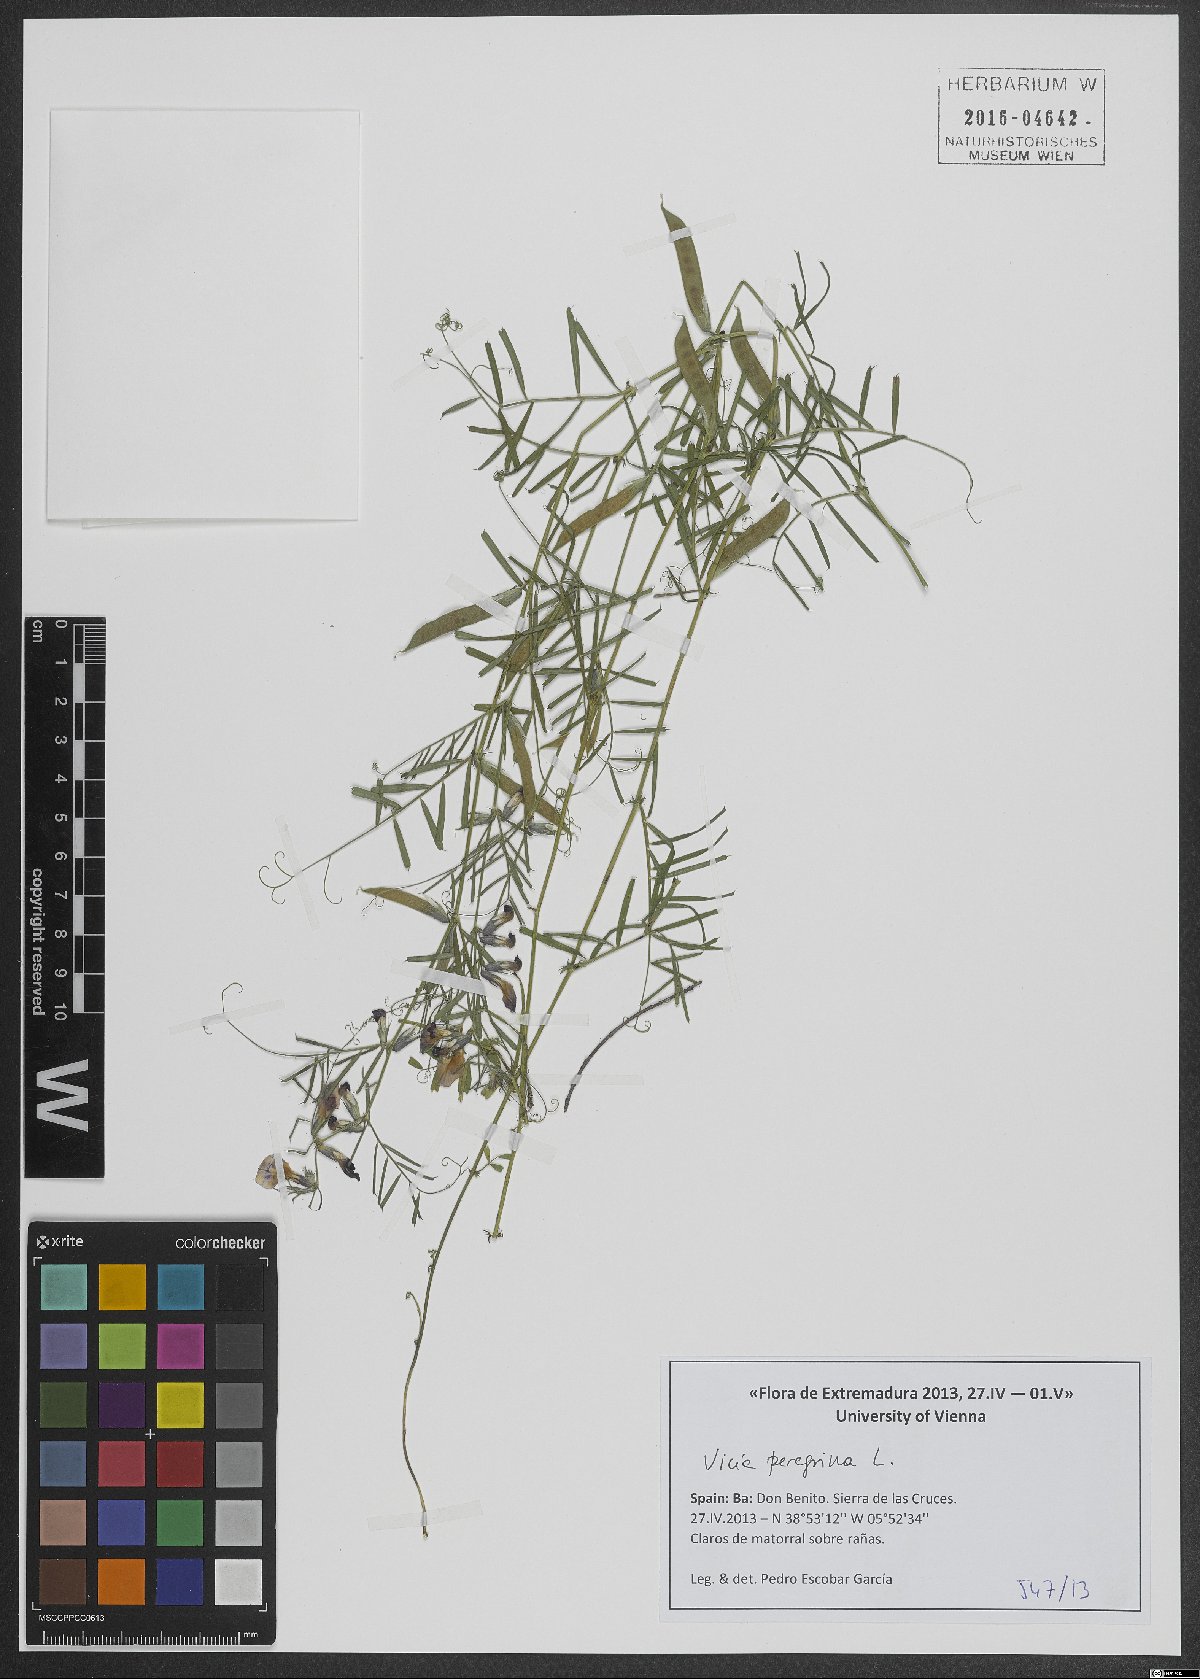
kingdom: Plantae
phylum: Tracheophyta
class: Magnoliopsida
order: Fabales
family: Fabaceae
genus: Vicia
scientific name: Vicia peregrina
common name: Broad-pod vetch
